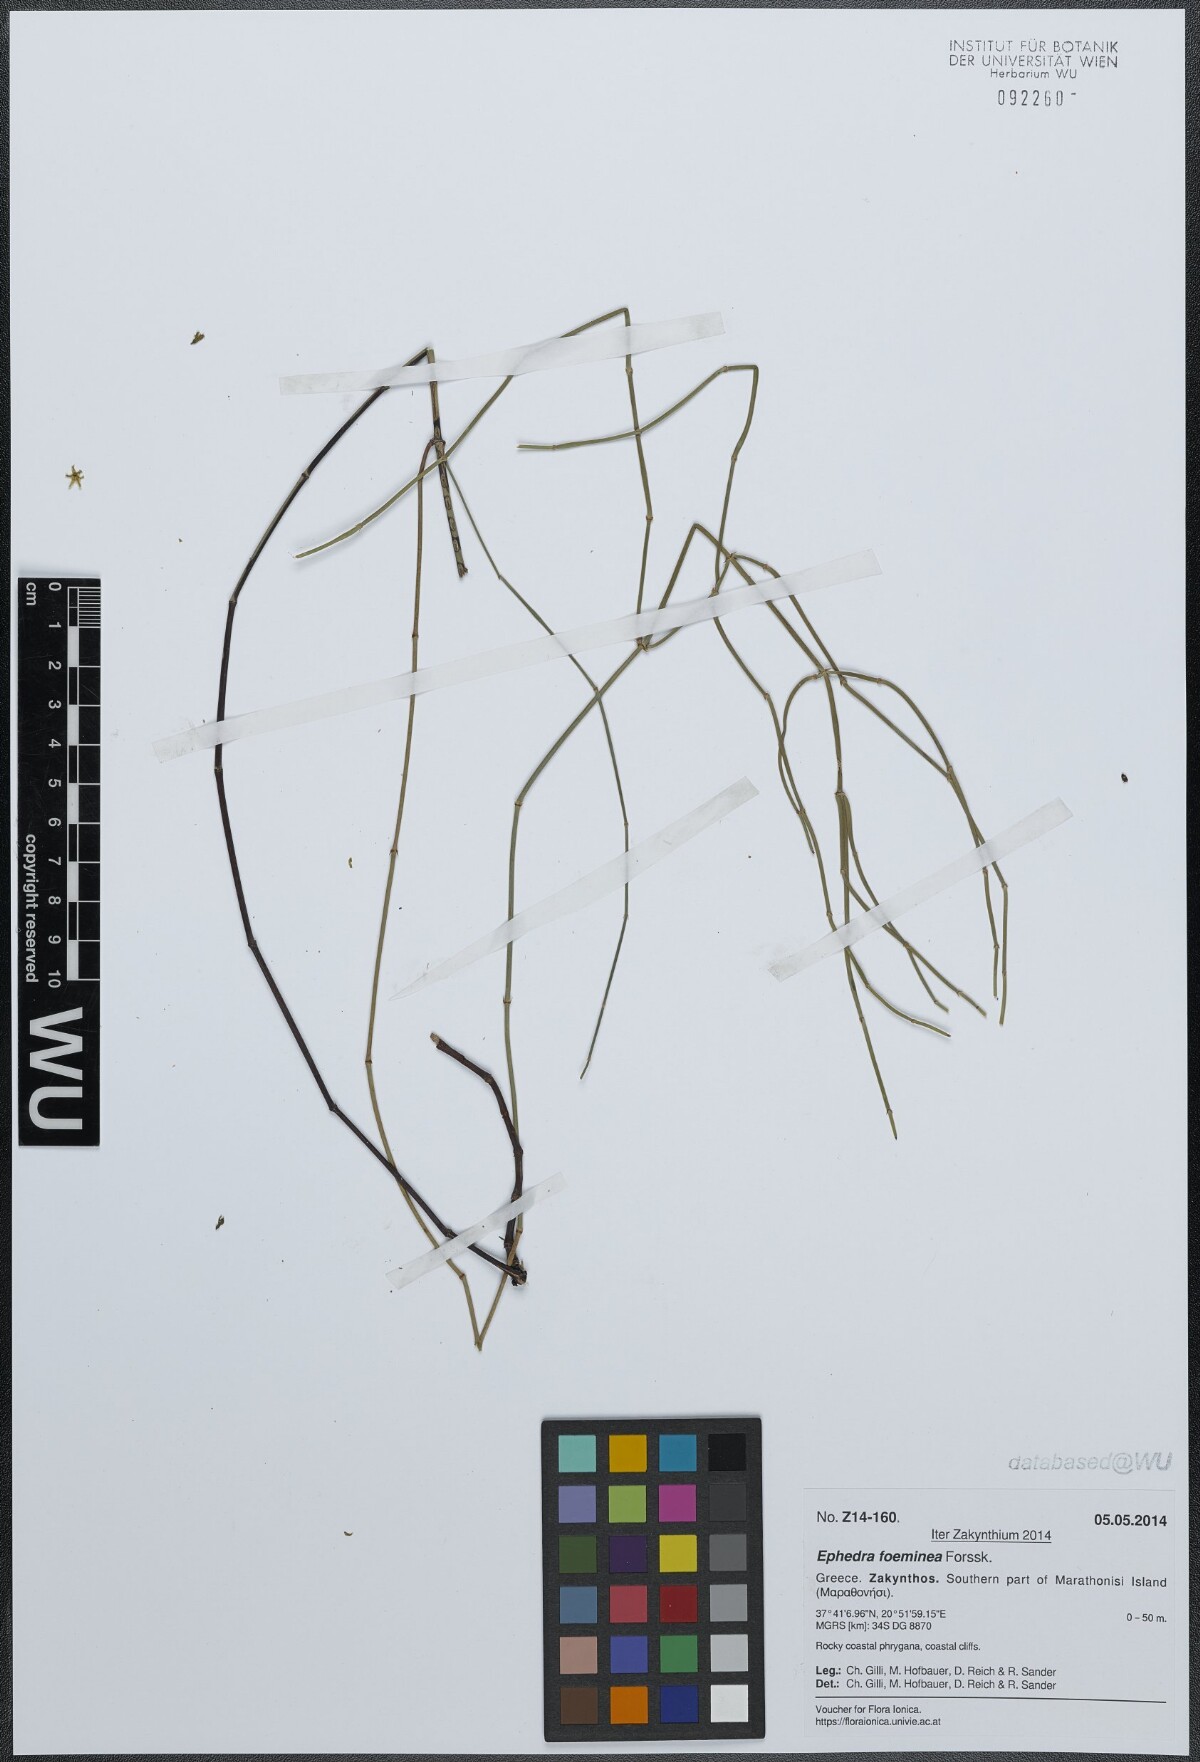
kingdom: Plantae
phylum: Tracheophyta
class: Gnetopsida
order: Ephedrales
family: Ephedraceae
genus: Ephedra
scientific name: Ephedra foeminea
